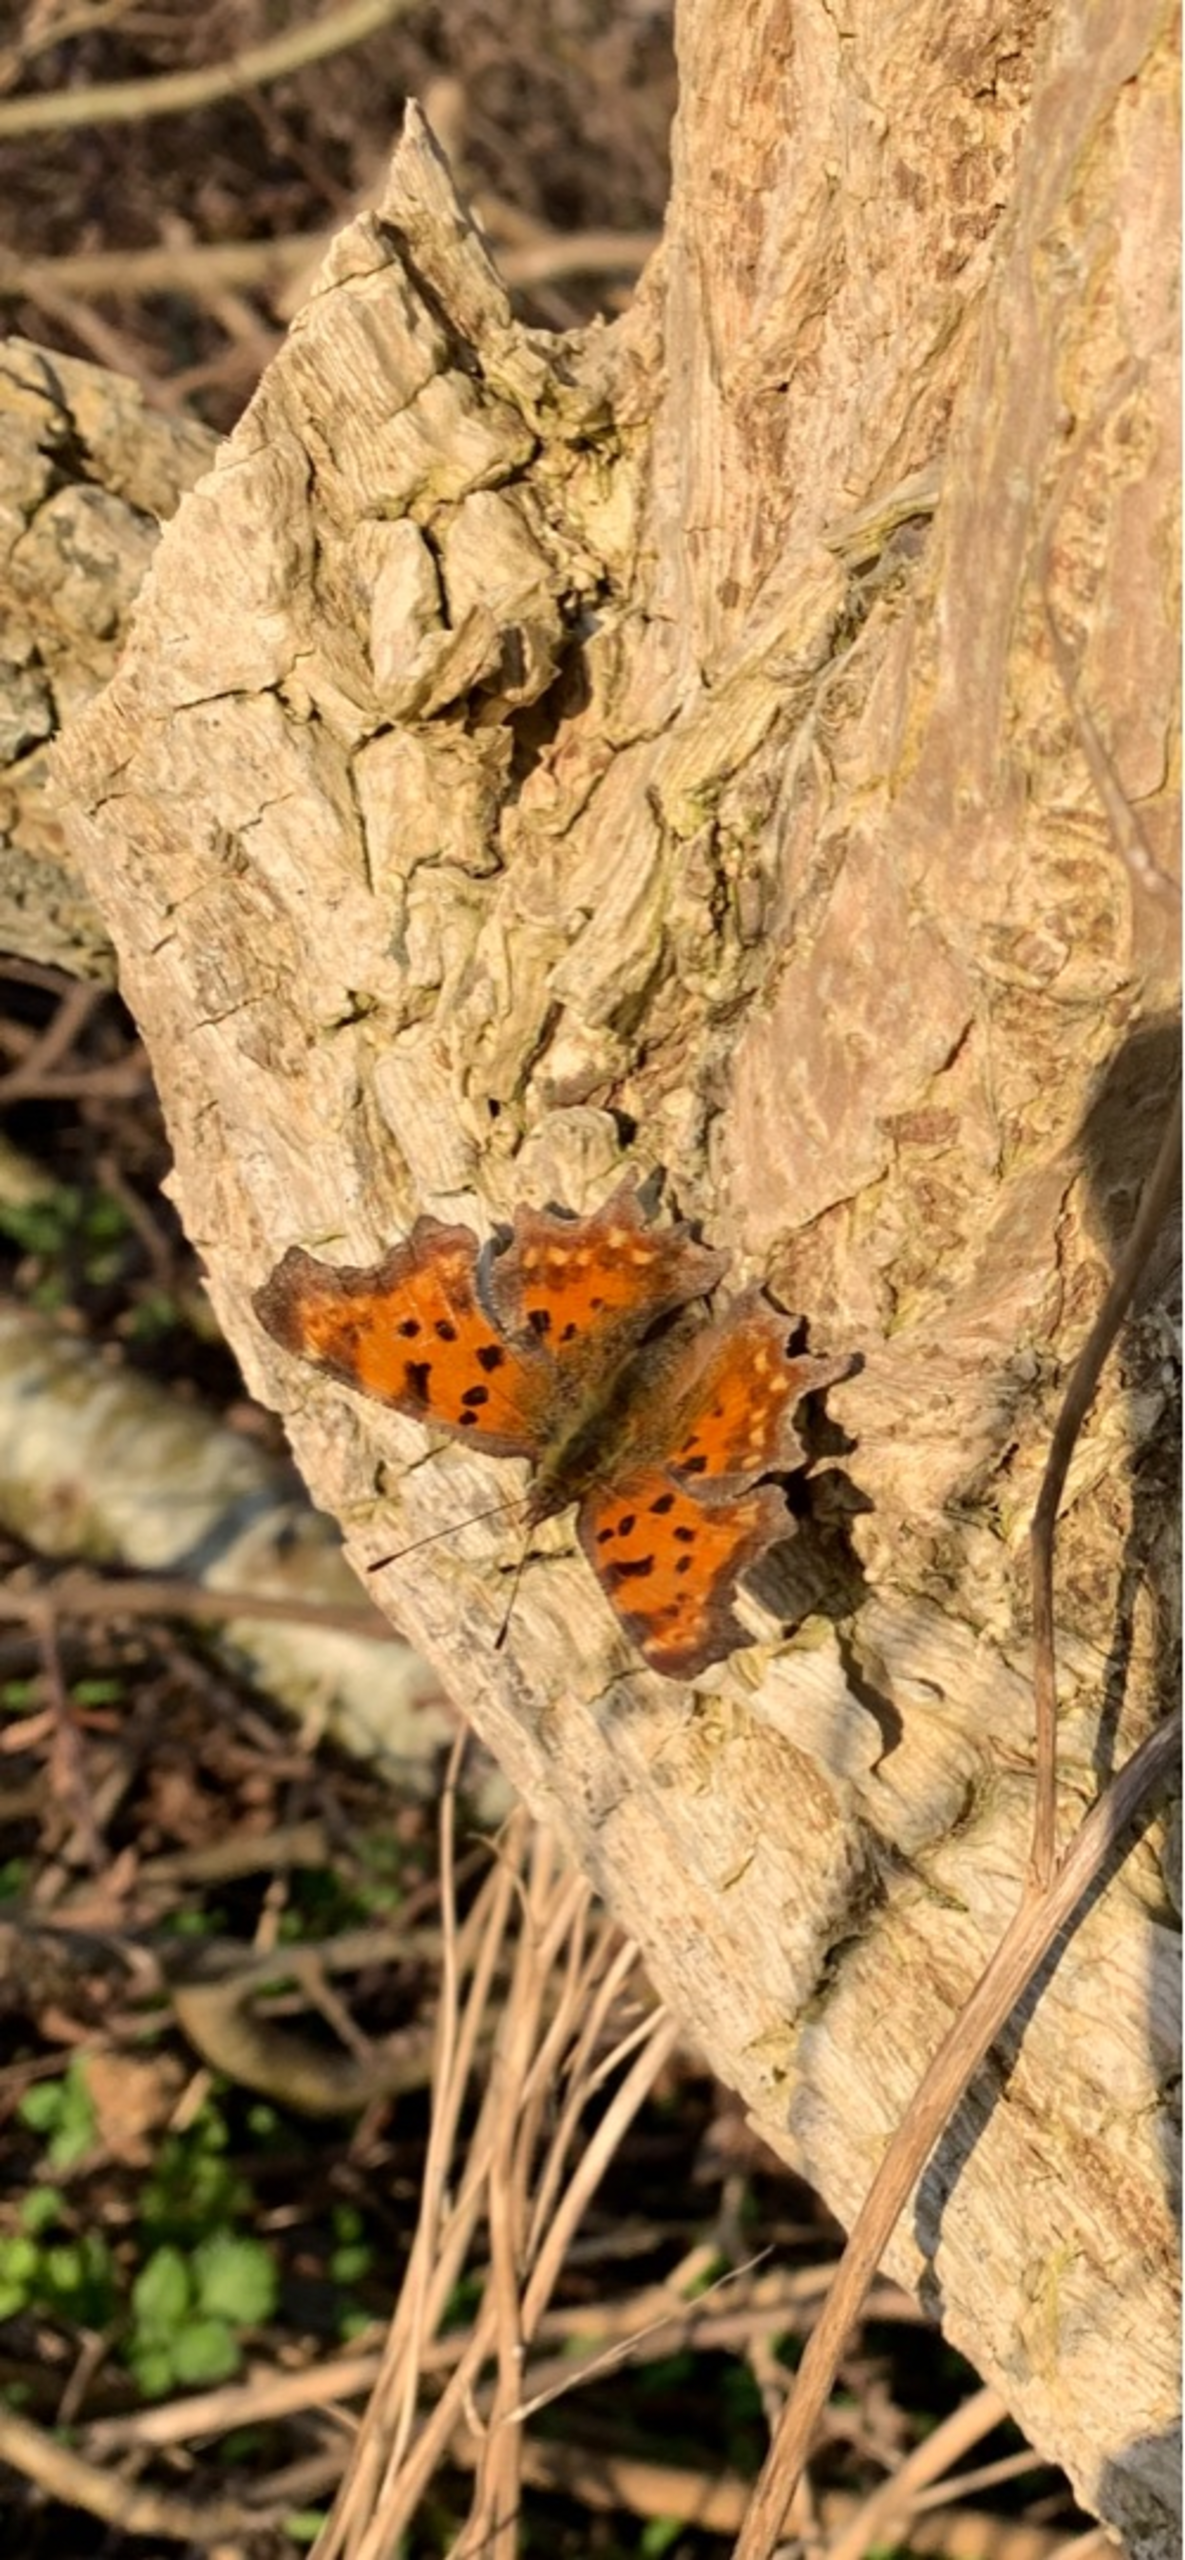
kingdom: Animalia
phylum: Arthropoda
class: Insecta
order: Lepidoptera
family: Nymphalidae
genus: Polygonia
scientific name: Polygonia c-album
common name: Det hvide C
